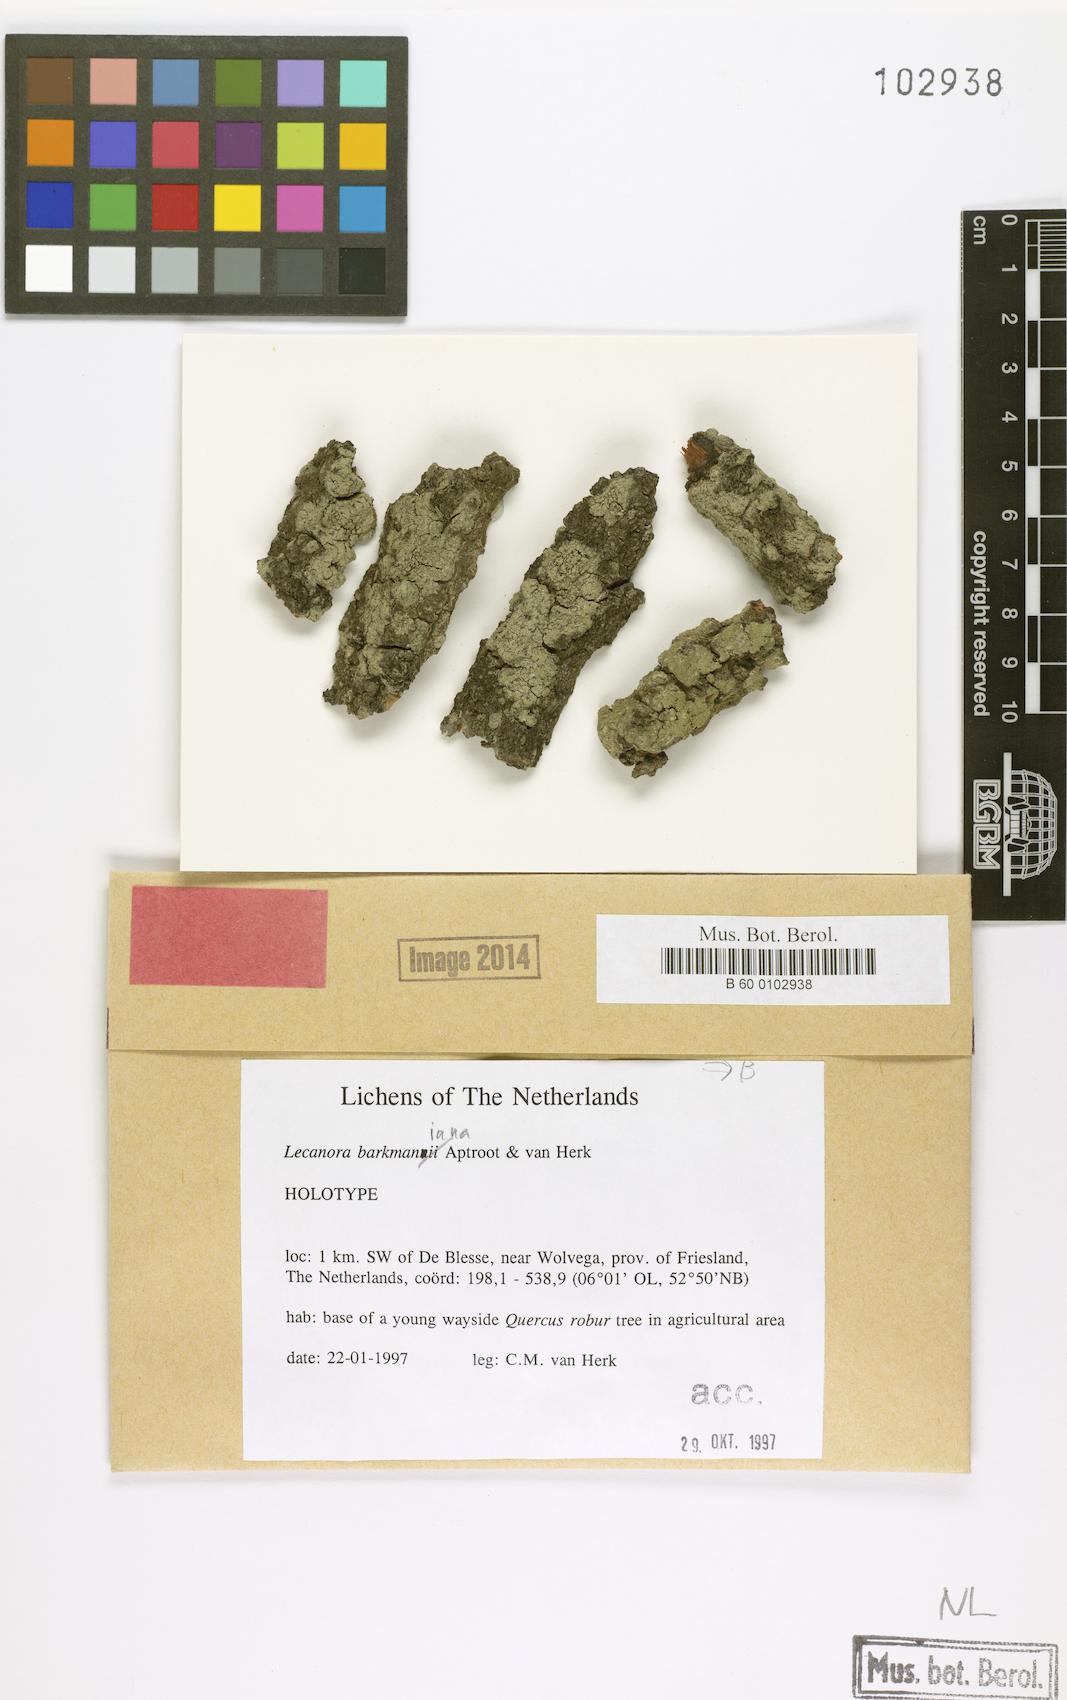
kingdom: Fungi
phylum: Ascomycota
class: Lecanoromycetes
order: Lecanorales
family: Lecanoraceae
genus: Lecanora
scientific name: Lecanora barkmaniana
